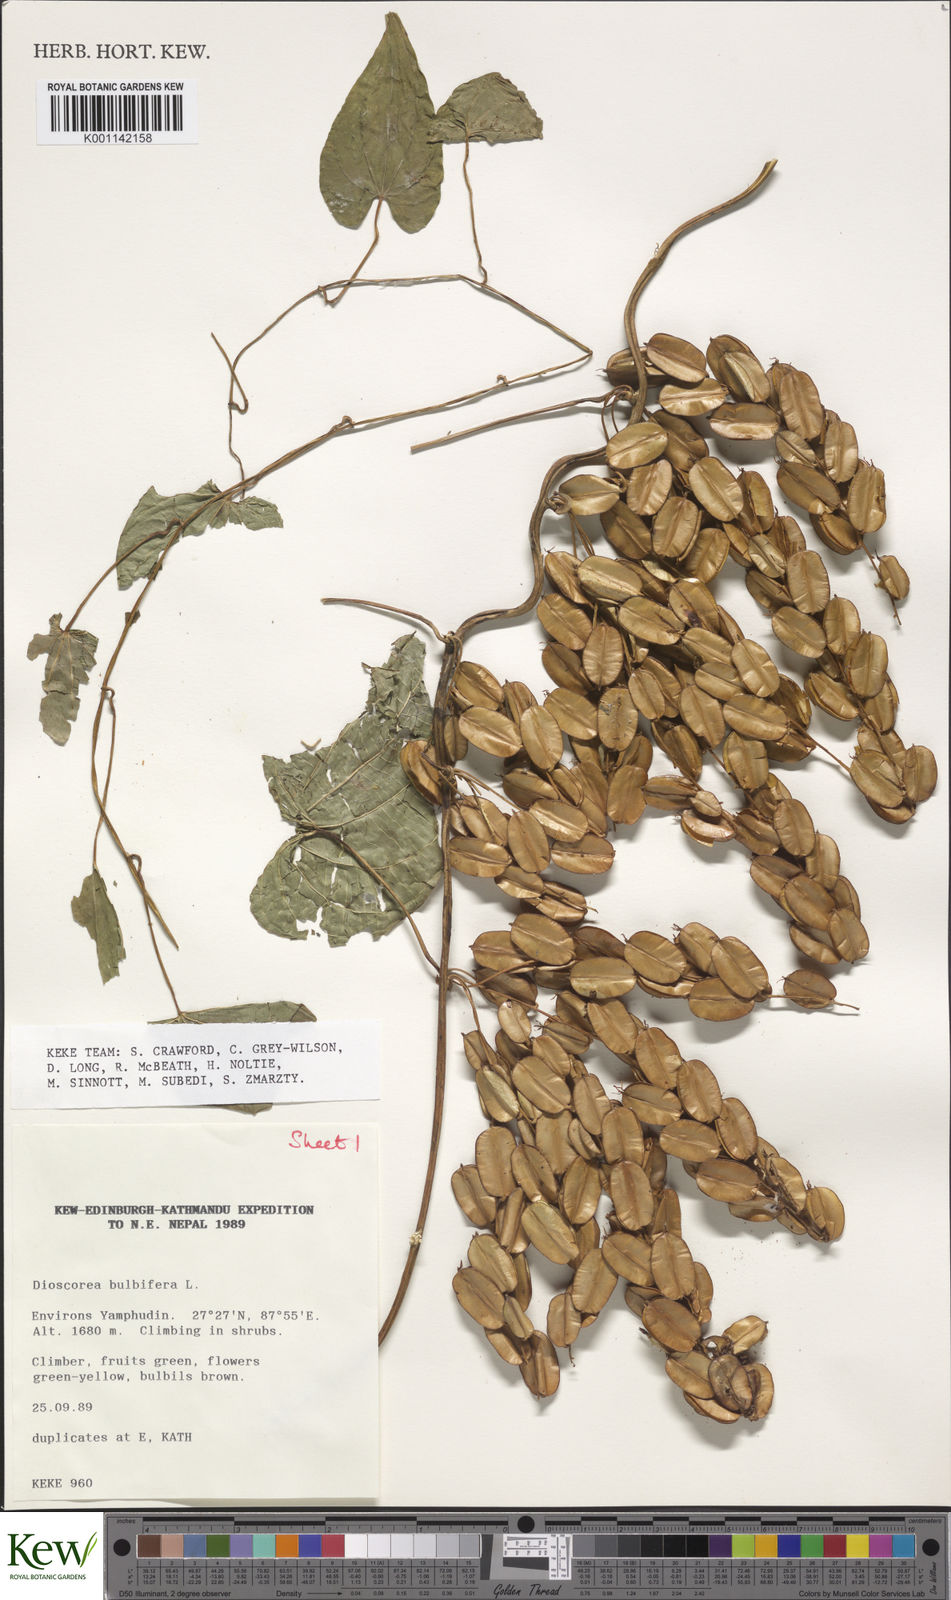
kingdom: Plantae
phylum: Tracheophyta
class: Liliopsida
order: Dioscoreales
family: Dioscoreaceae
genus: Dioscorea
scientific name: Dioscorea bulbifera
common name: Air yam
